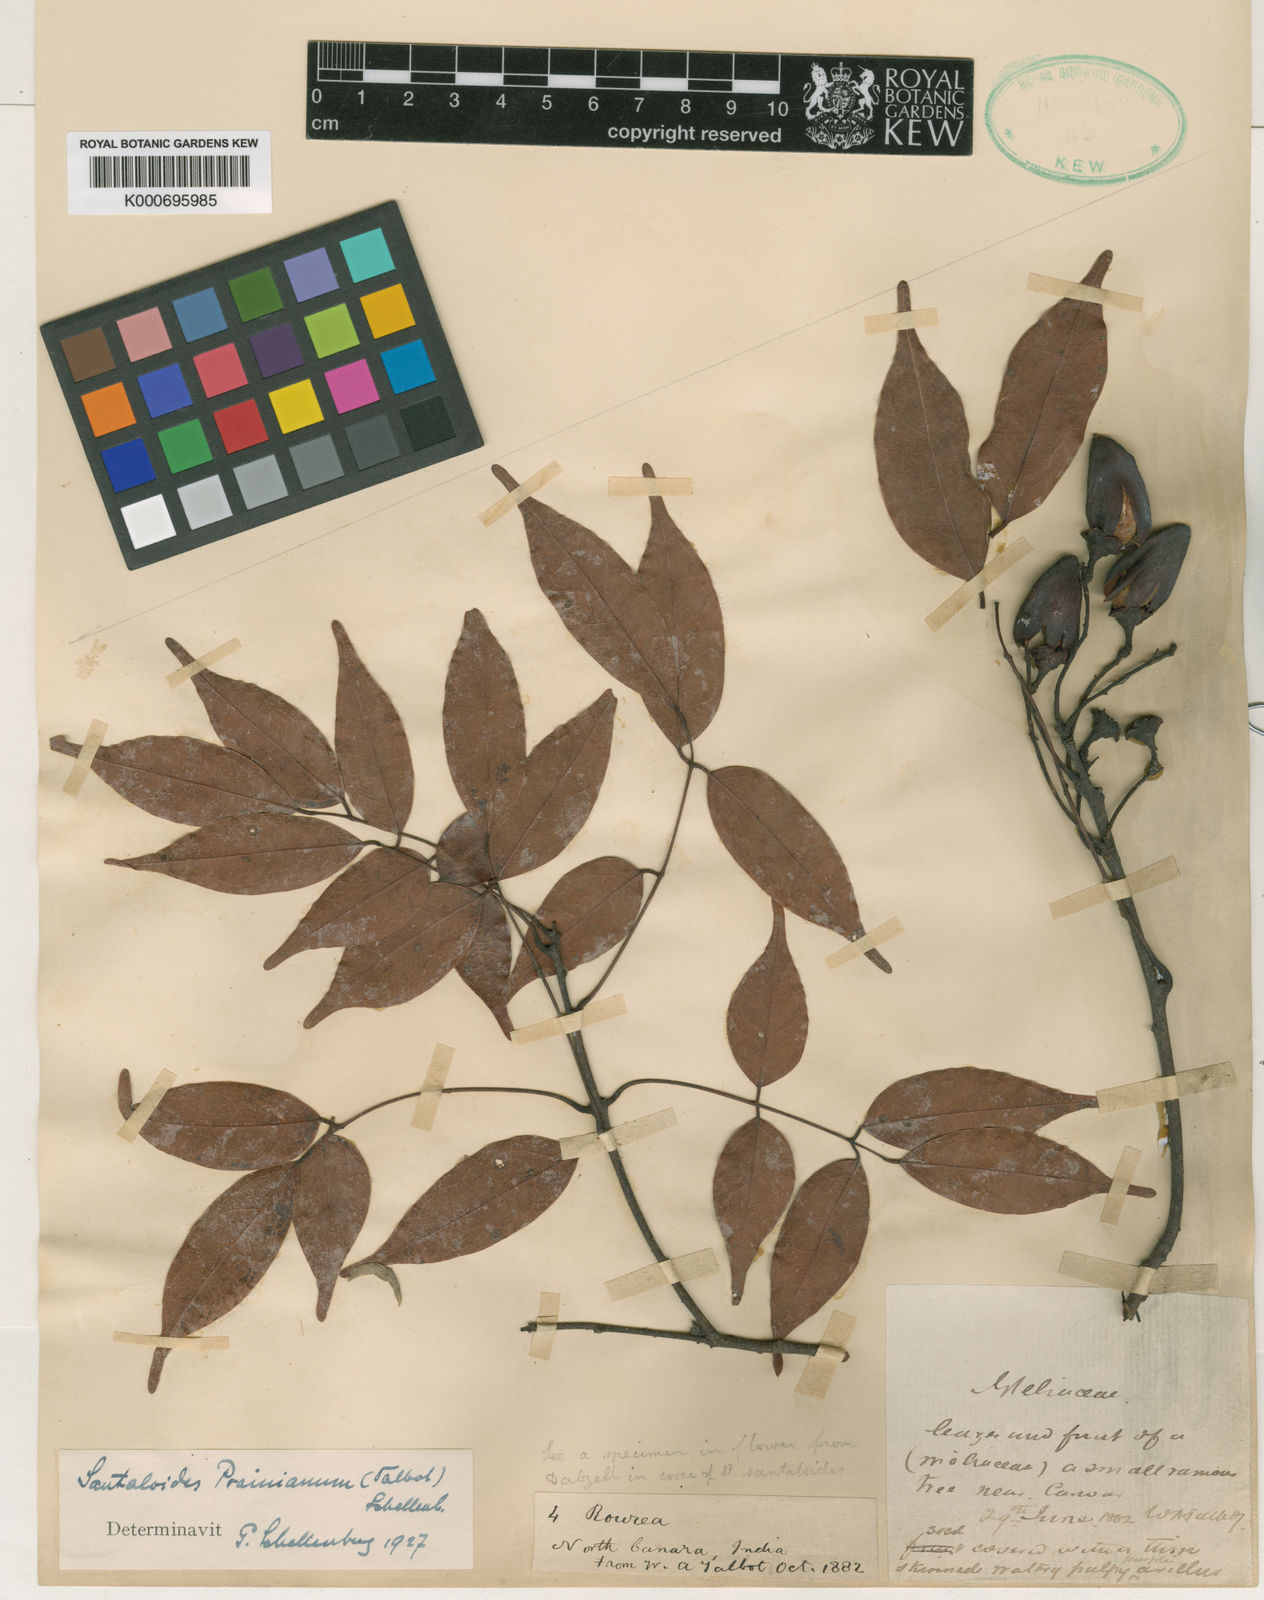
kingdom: Plantae
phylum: Tracheophyta
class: Magnoliopsida
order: Oxalidales
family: Connaraceae
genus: Rourea
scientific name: Rourea prainiana
